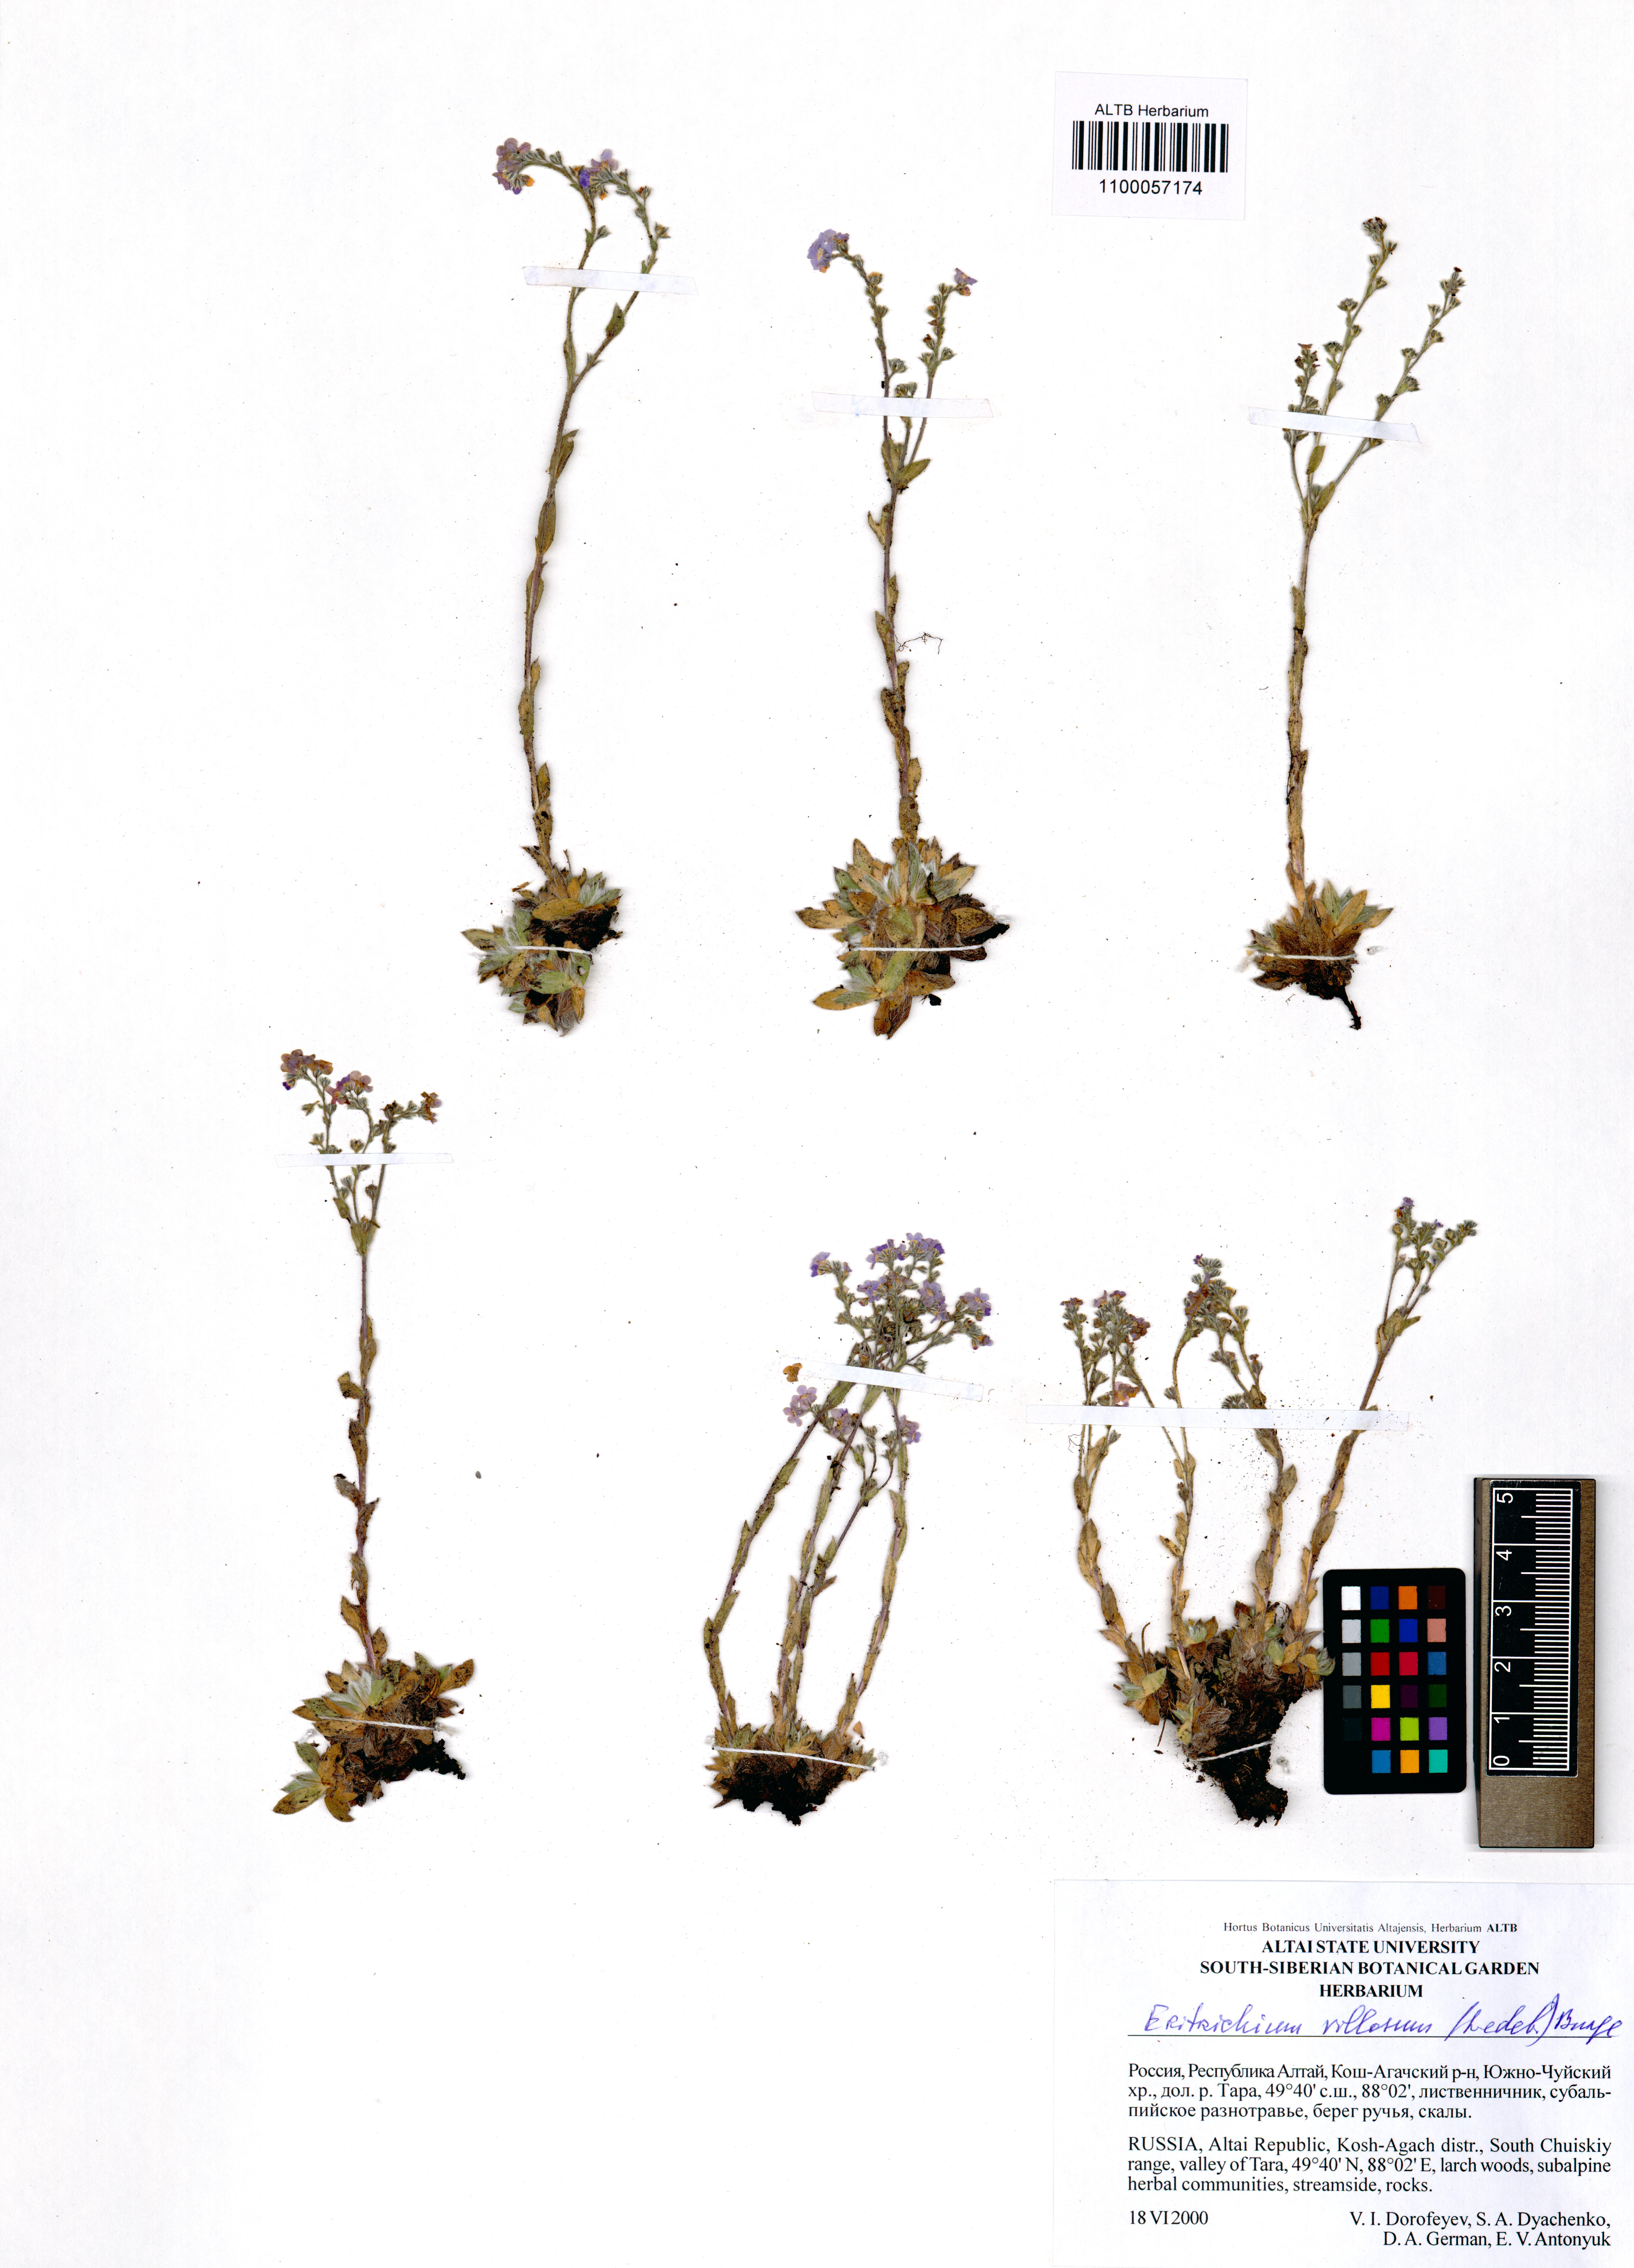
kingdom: Plantae
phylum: Tracheophyta
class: Magnoliopsida
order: Boraginales
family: Boraginaceae
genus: Eritrichium
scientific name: Eritrichium villosum
